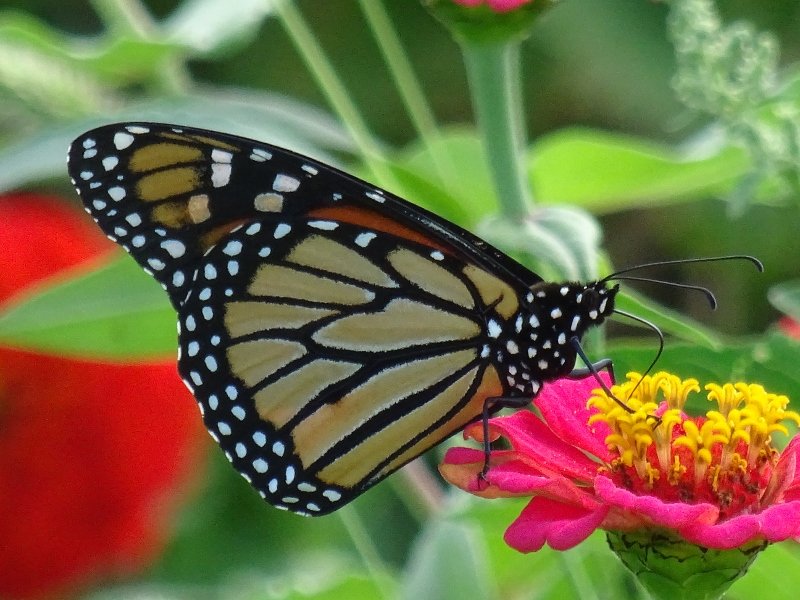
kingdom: Animalia
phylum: Arthropoda
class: Insecta
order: Lepidoptera
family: Nymphalidae
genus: Danaus
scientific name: Danaus plexippus
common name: Monarch
